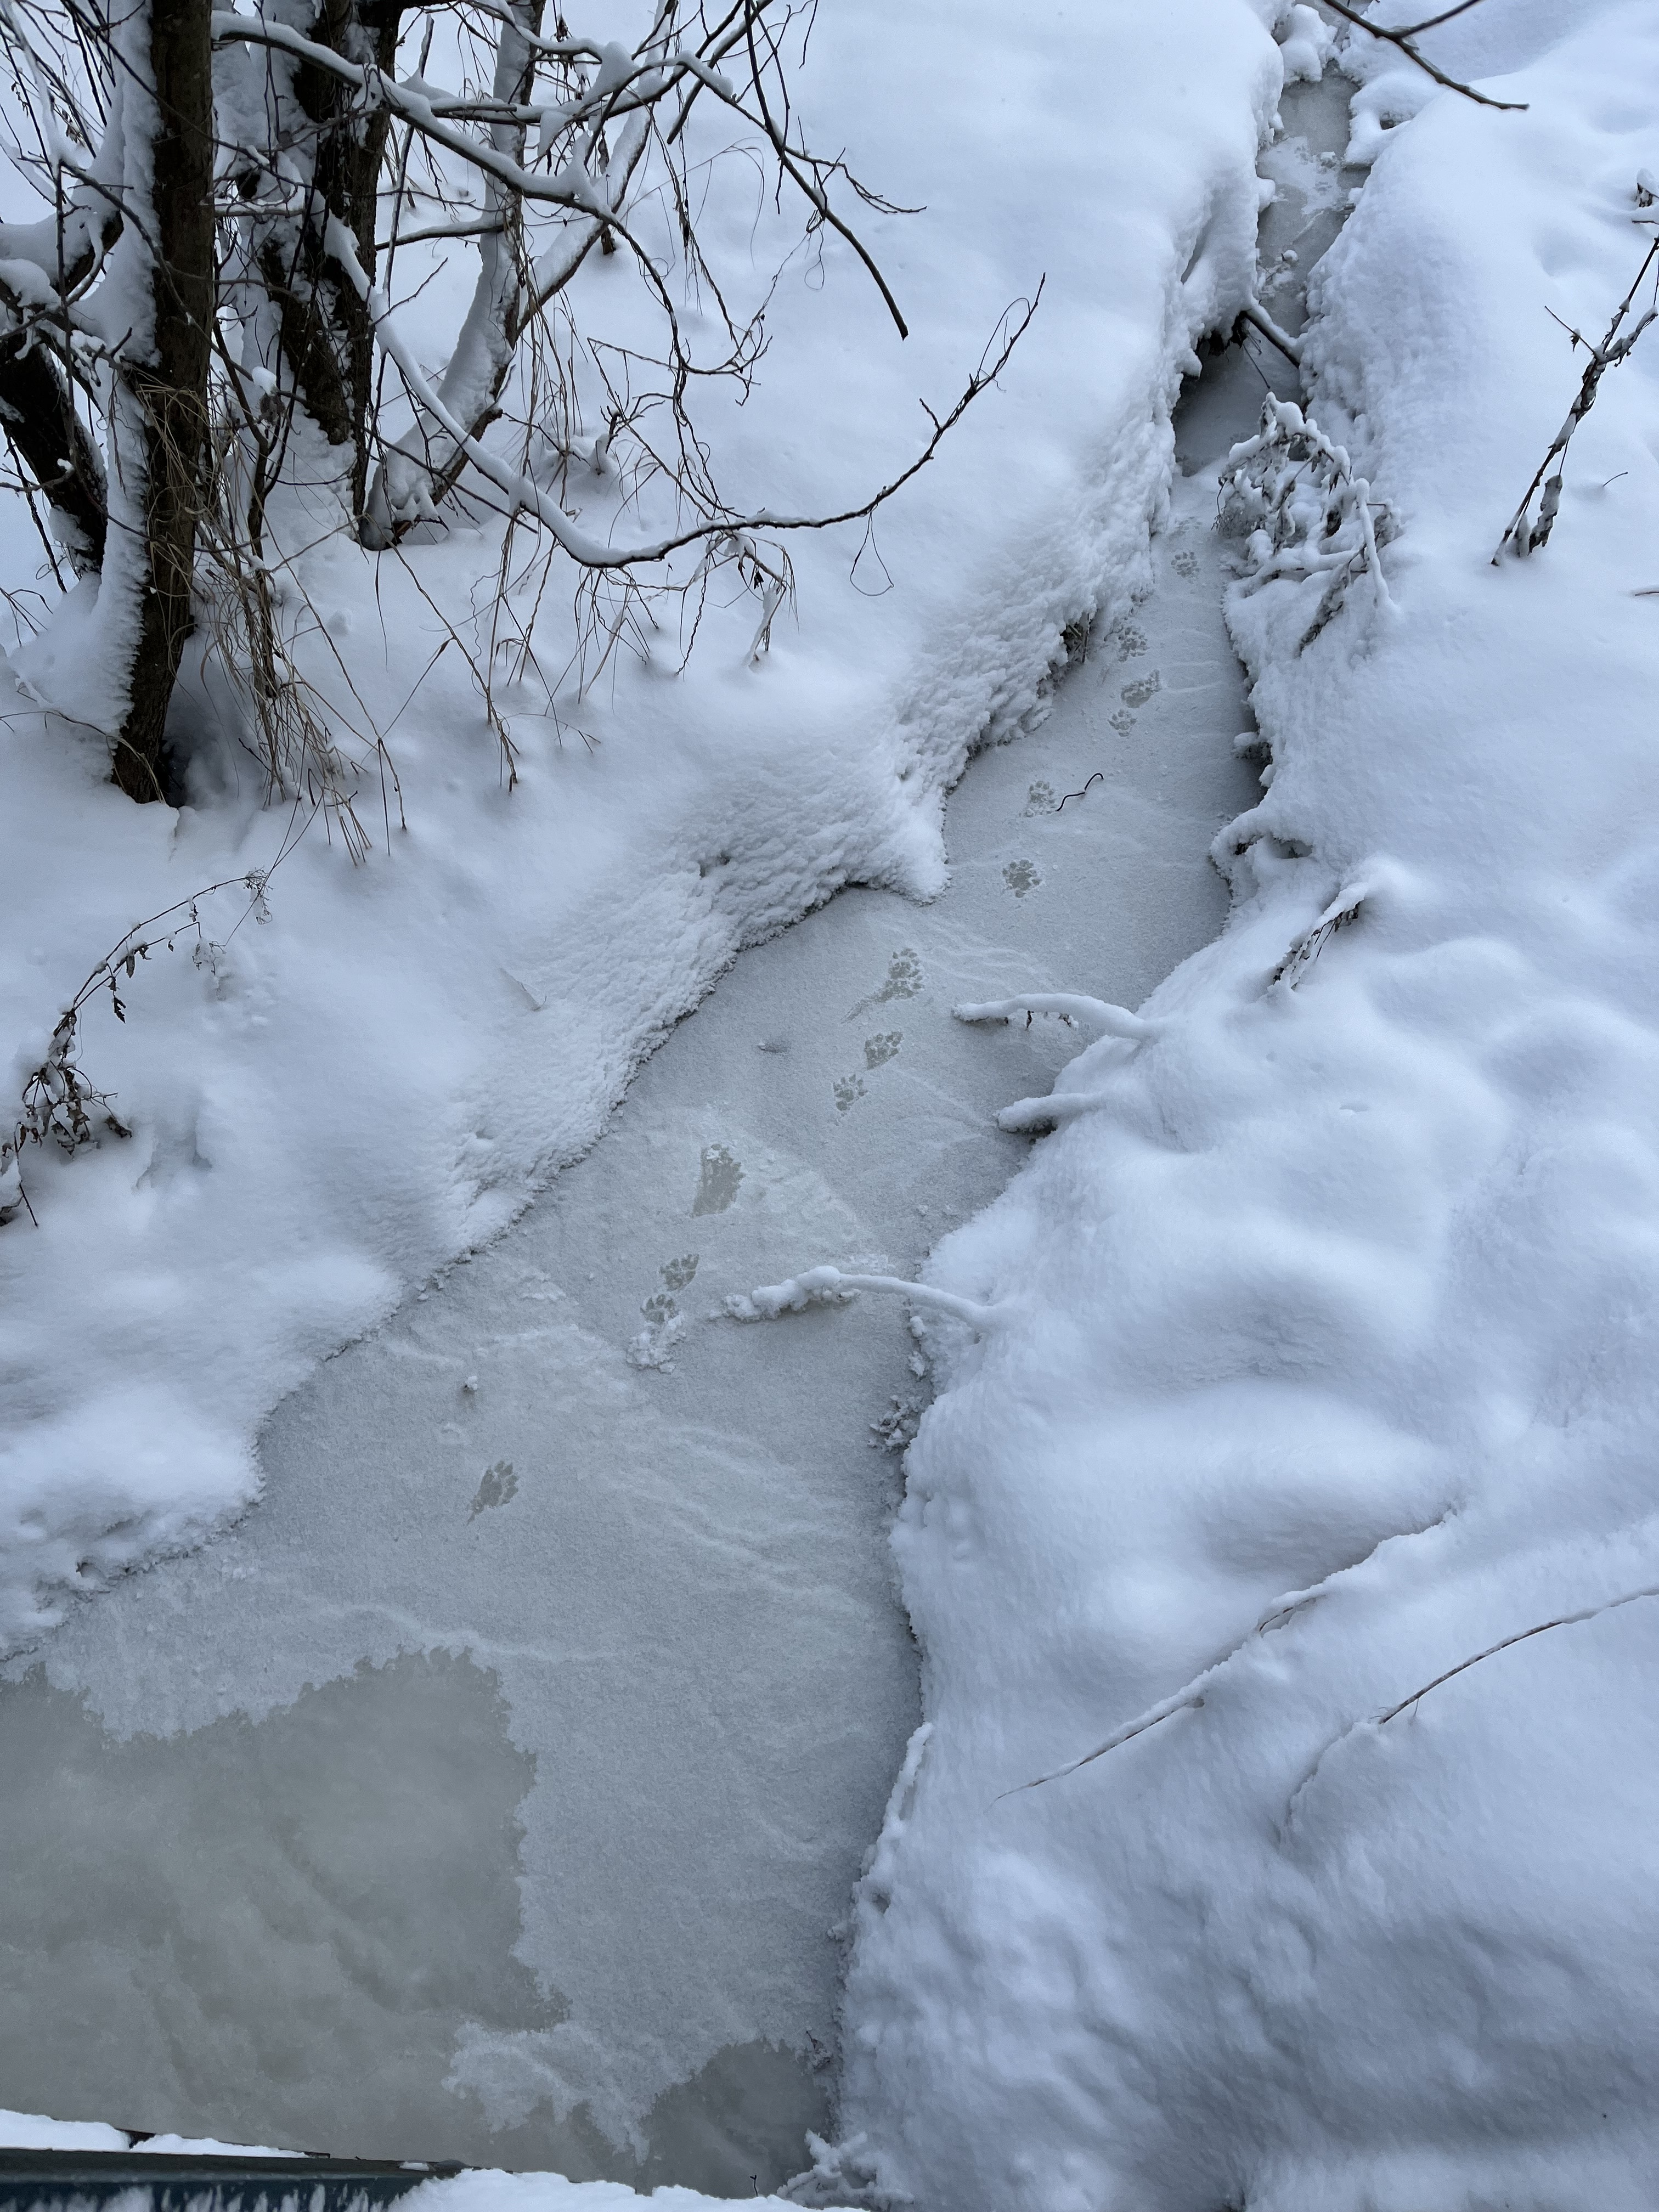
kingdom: Animalia
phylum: Chordata
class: Mammalia
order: Carnivora
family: Mustelidae
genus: Lutra
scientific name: Lutra lutra
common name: European otter
